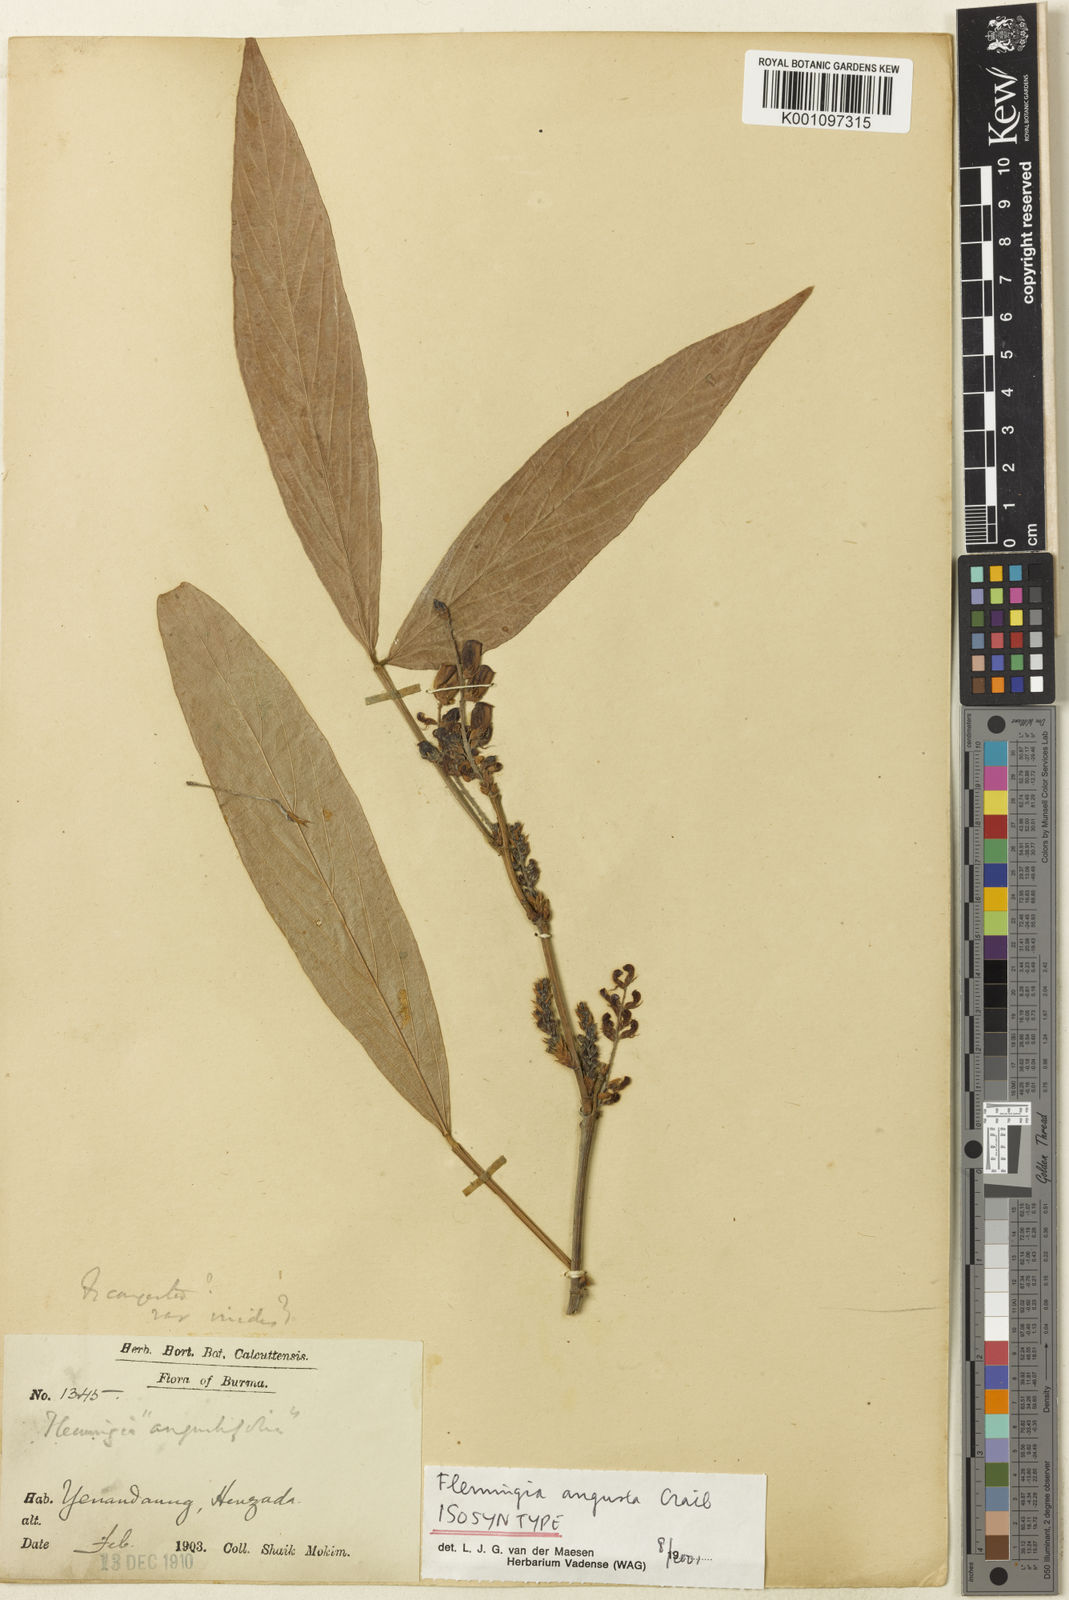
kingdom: Plantae
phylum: Tracheophyta
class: Magnoliopsida
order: Fabales
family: Fabaceae
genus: Flemingia
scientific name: Flemingia praecox
